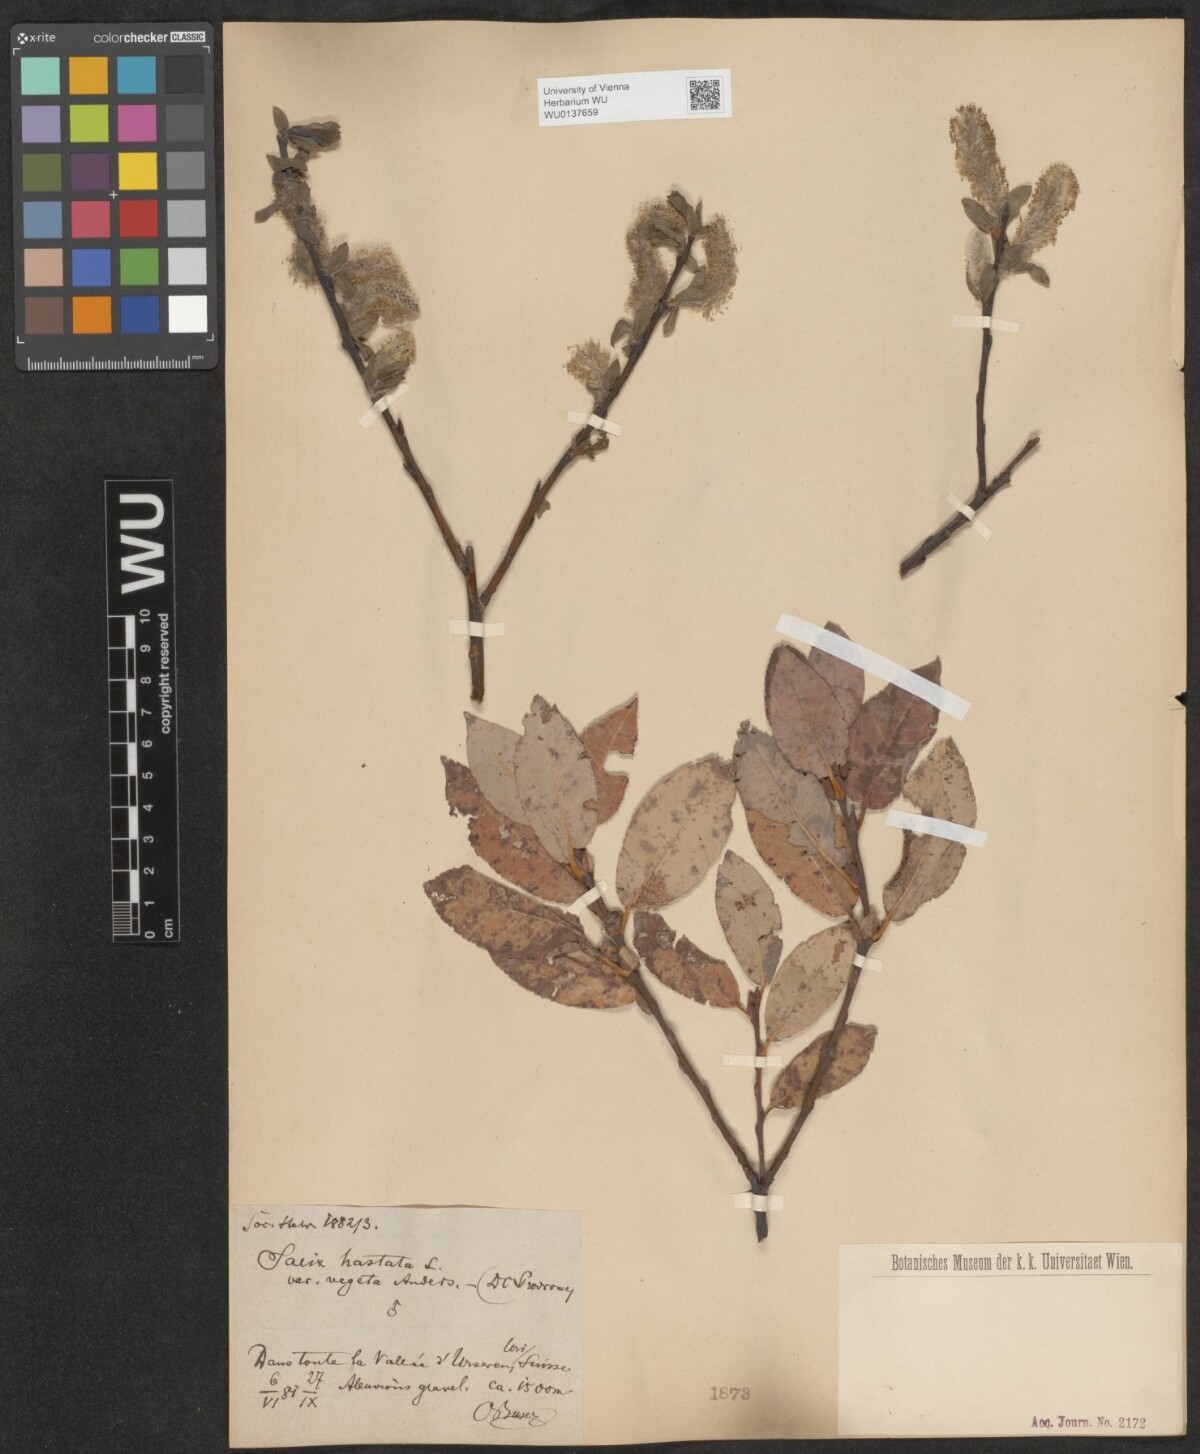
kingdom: Plantae
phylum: Tracheophyta
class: Magnoliopsida
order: Malpighiales
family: Salicaceae
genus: Salix
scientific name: Salix hastata
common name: Halberd willow
